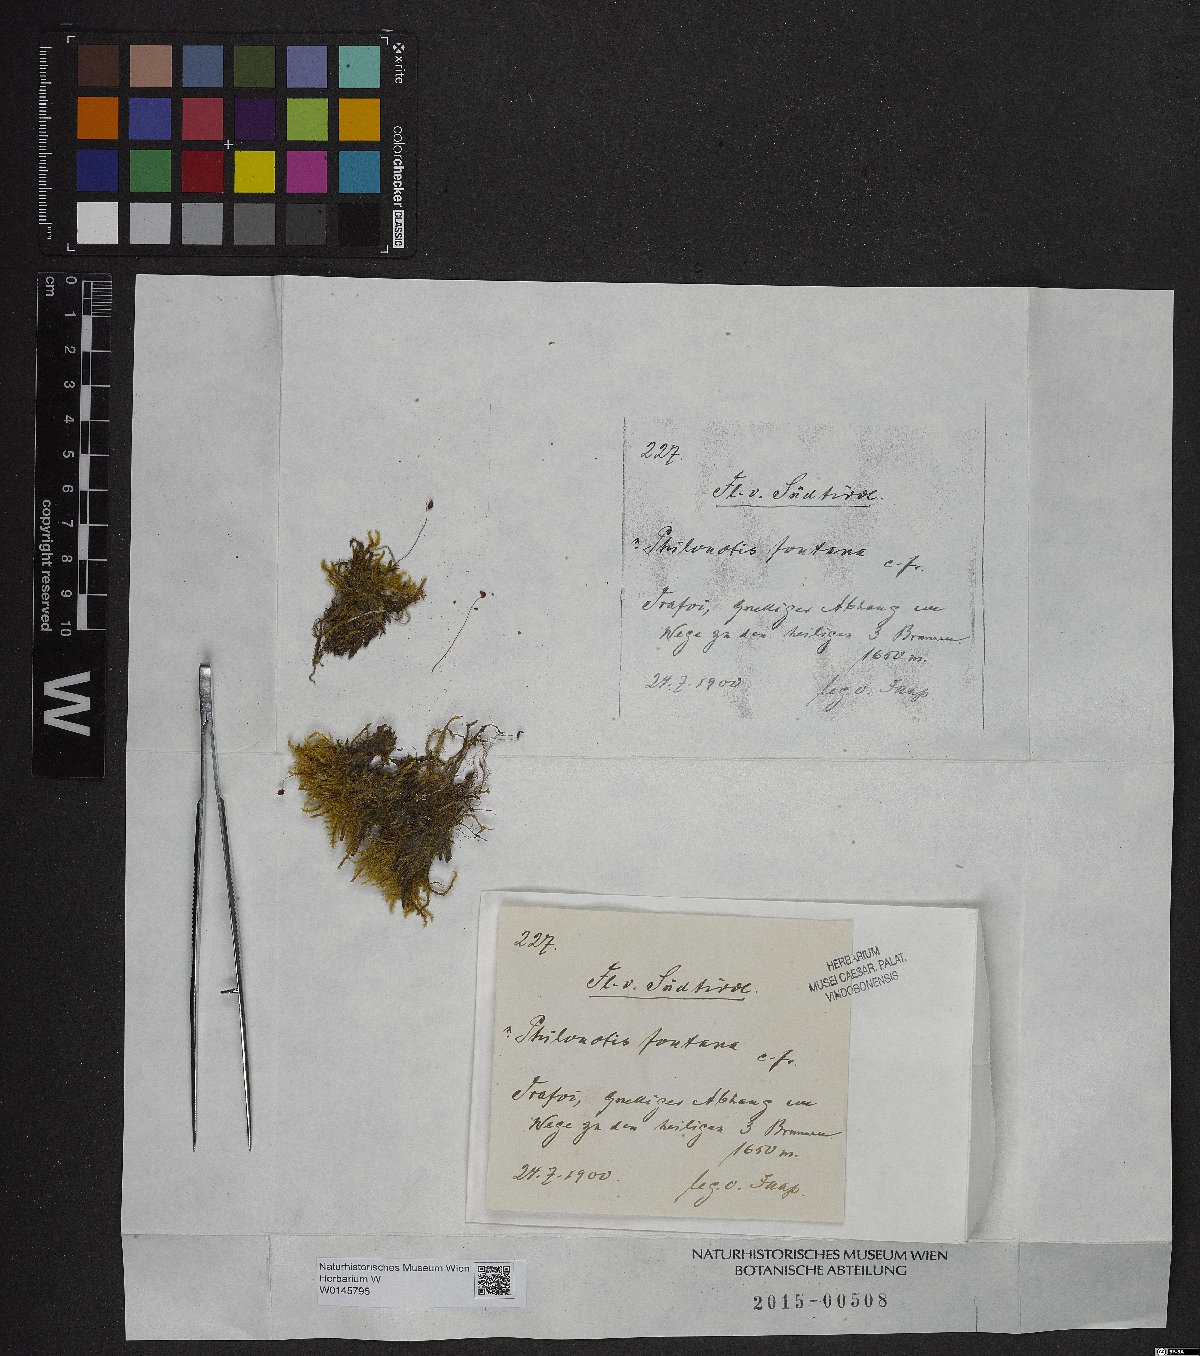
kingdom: Plantae
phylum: Bryophyta
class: Bryopsida
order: Bartramiales
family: Bartramiaceae
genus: Philonotis
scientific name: Philonotis fontana
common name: Fountain apple-moss
